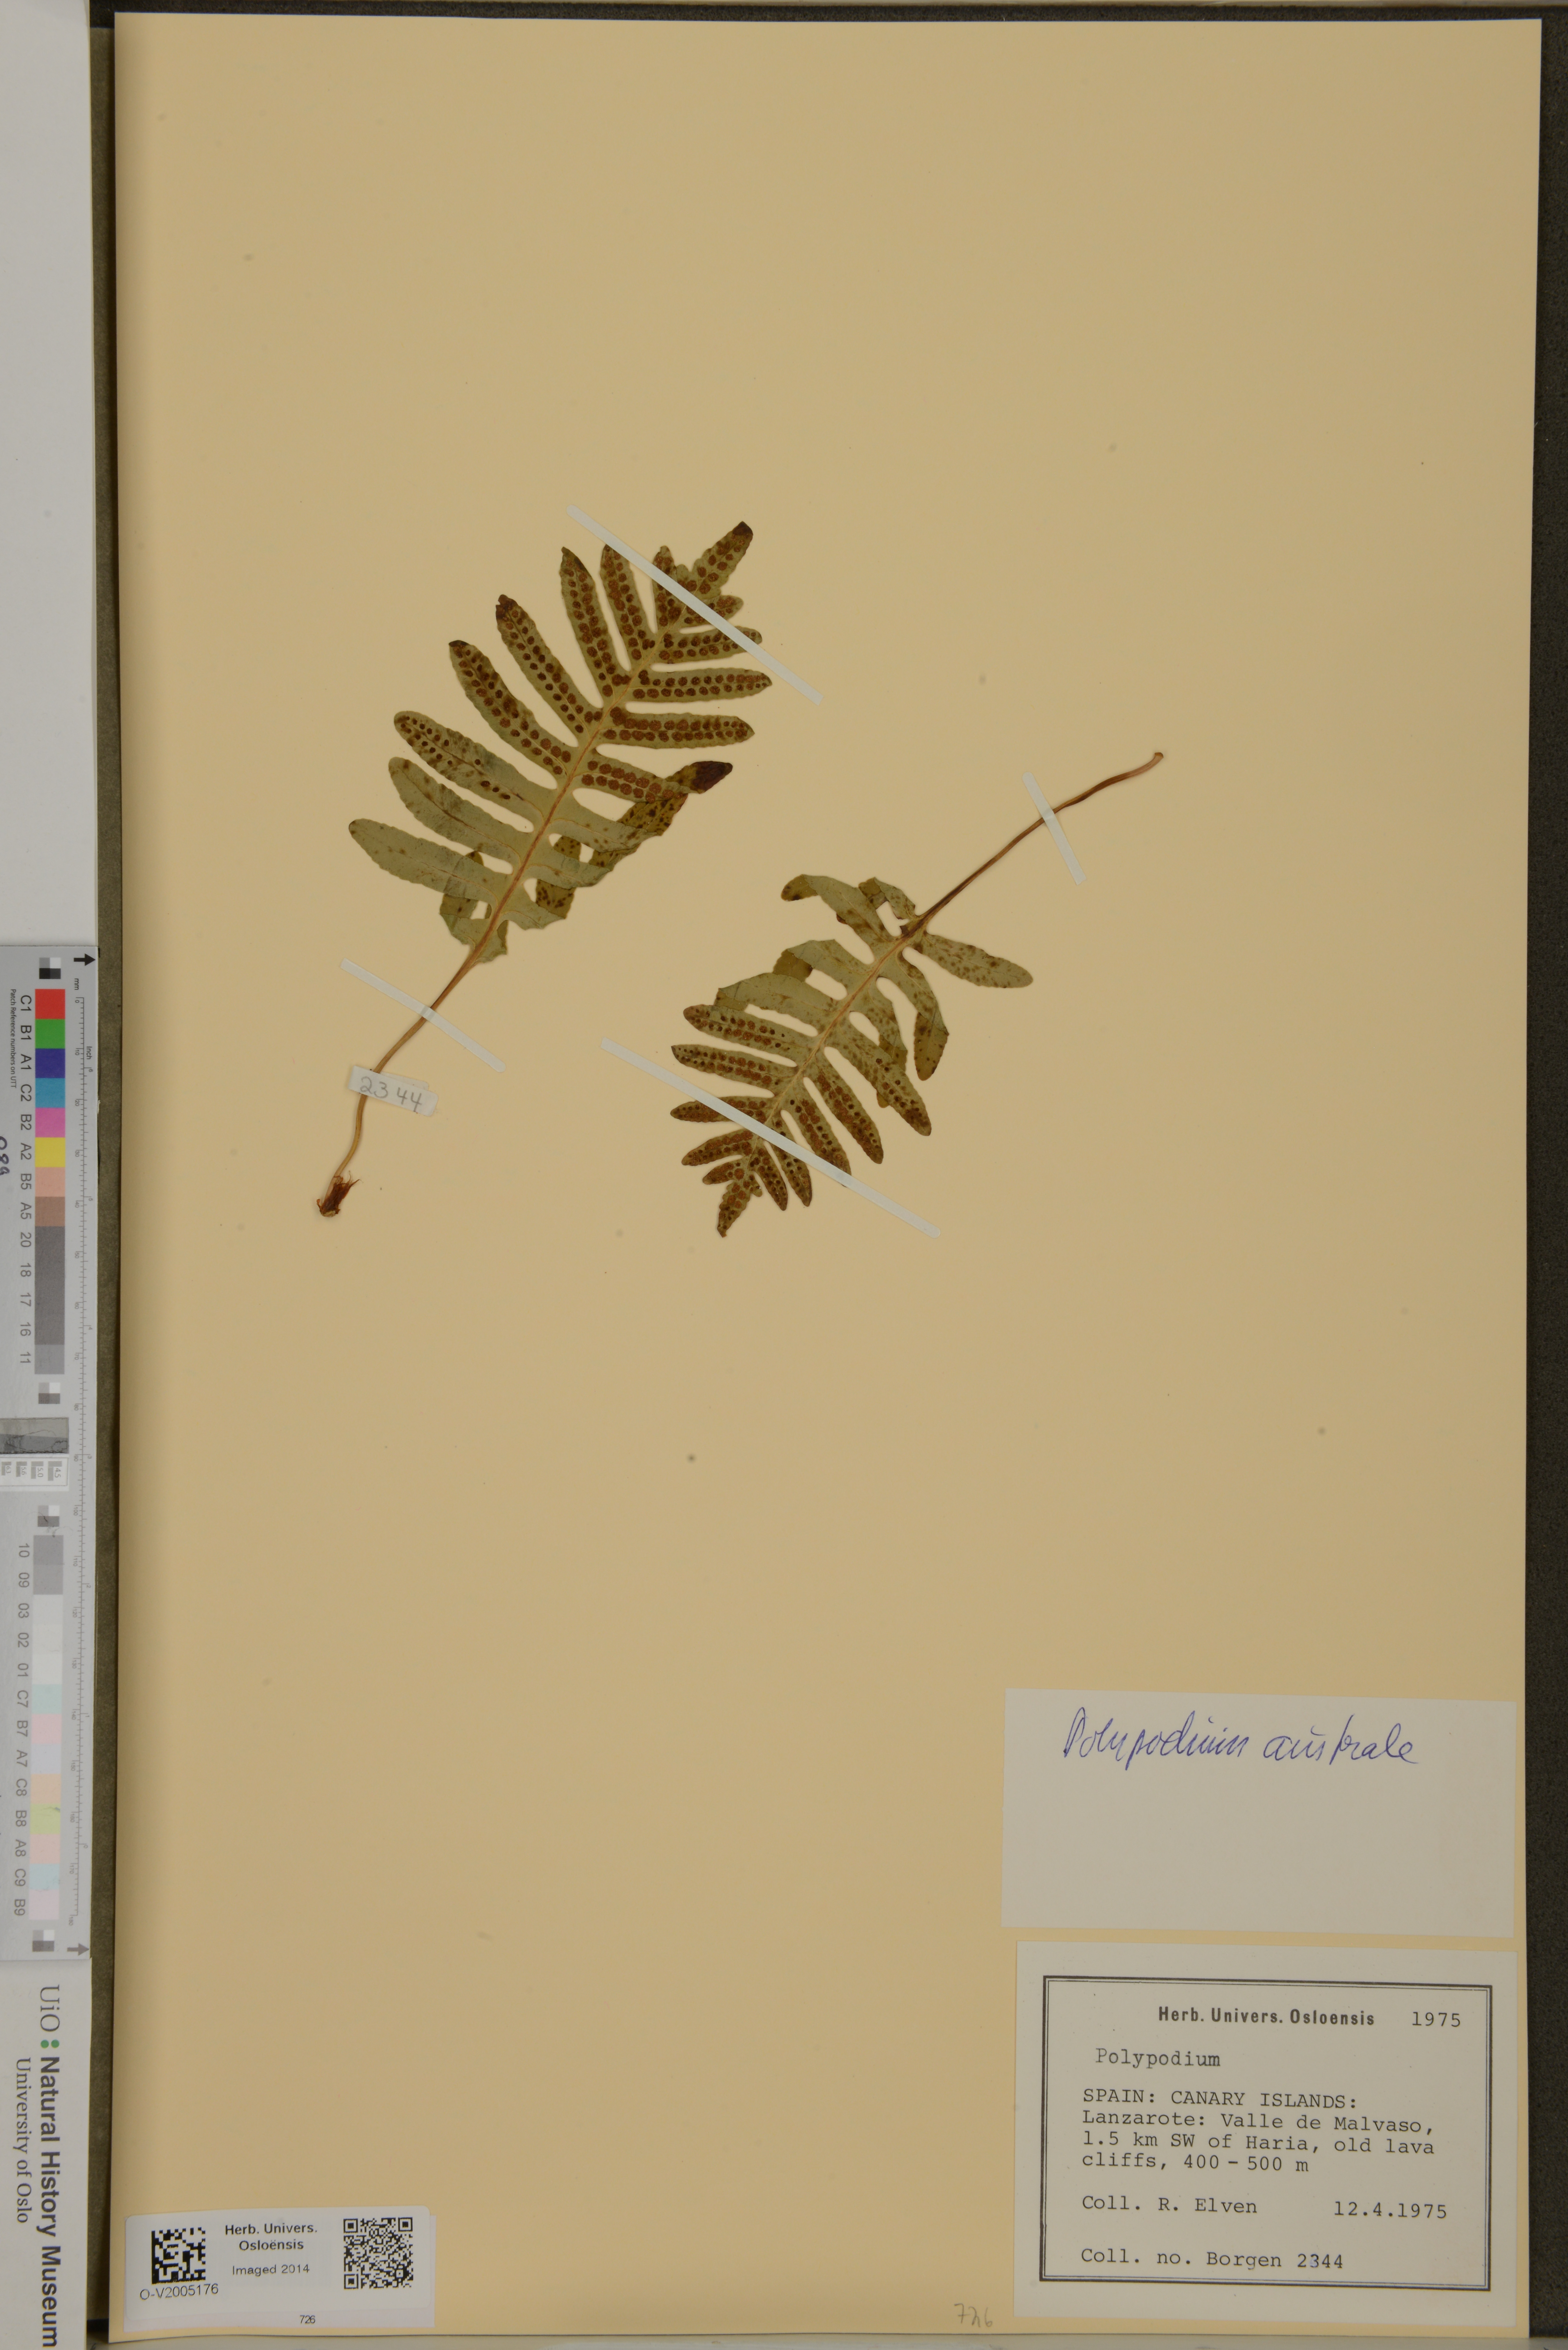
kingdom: Plantae
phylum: Tracheophyta
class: Polypodiopsida
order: Polypodiales
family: Polypodiaceae
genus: Polypodium
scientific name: Polypodium cambricum
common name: Southern polypody
